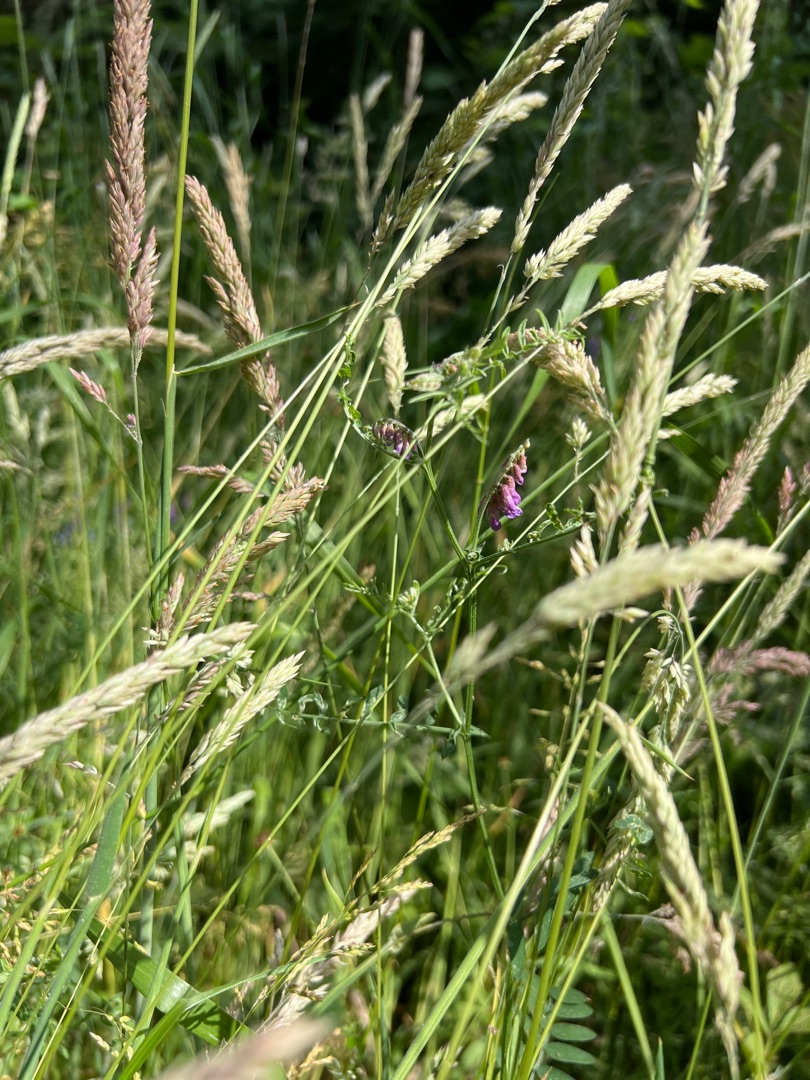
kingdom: Plantae
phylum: Tracheophyta
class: Magnoliopsida
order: Fabales
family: Fabaceae
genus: Vicia
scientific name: Vicia cracca
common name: Muse-vikke
